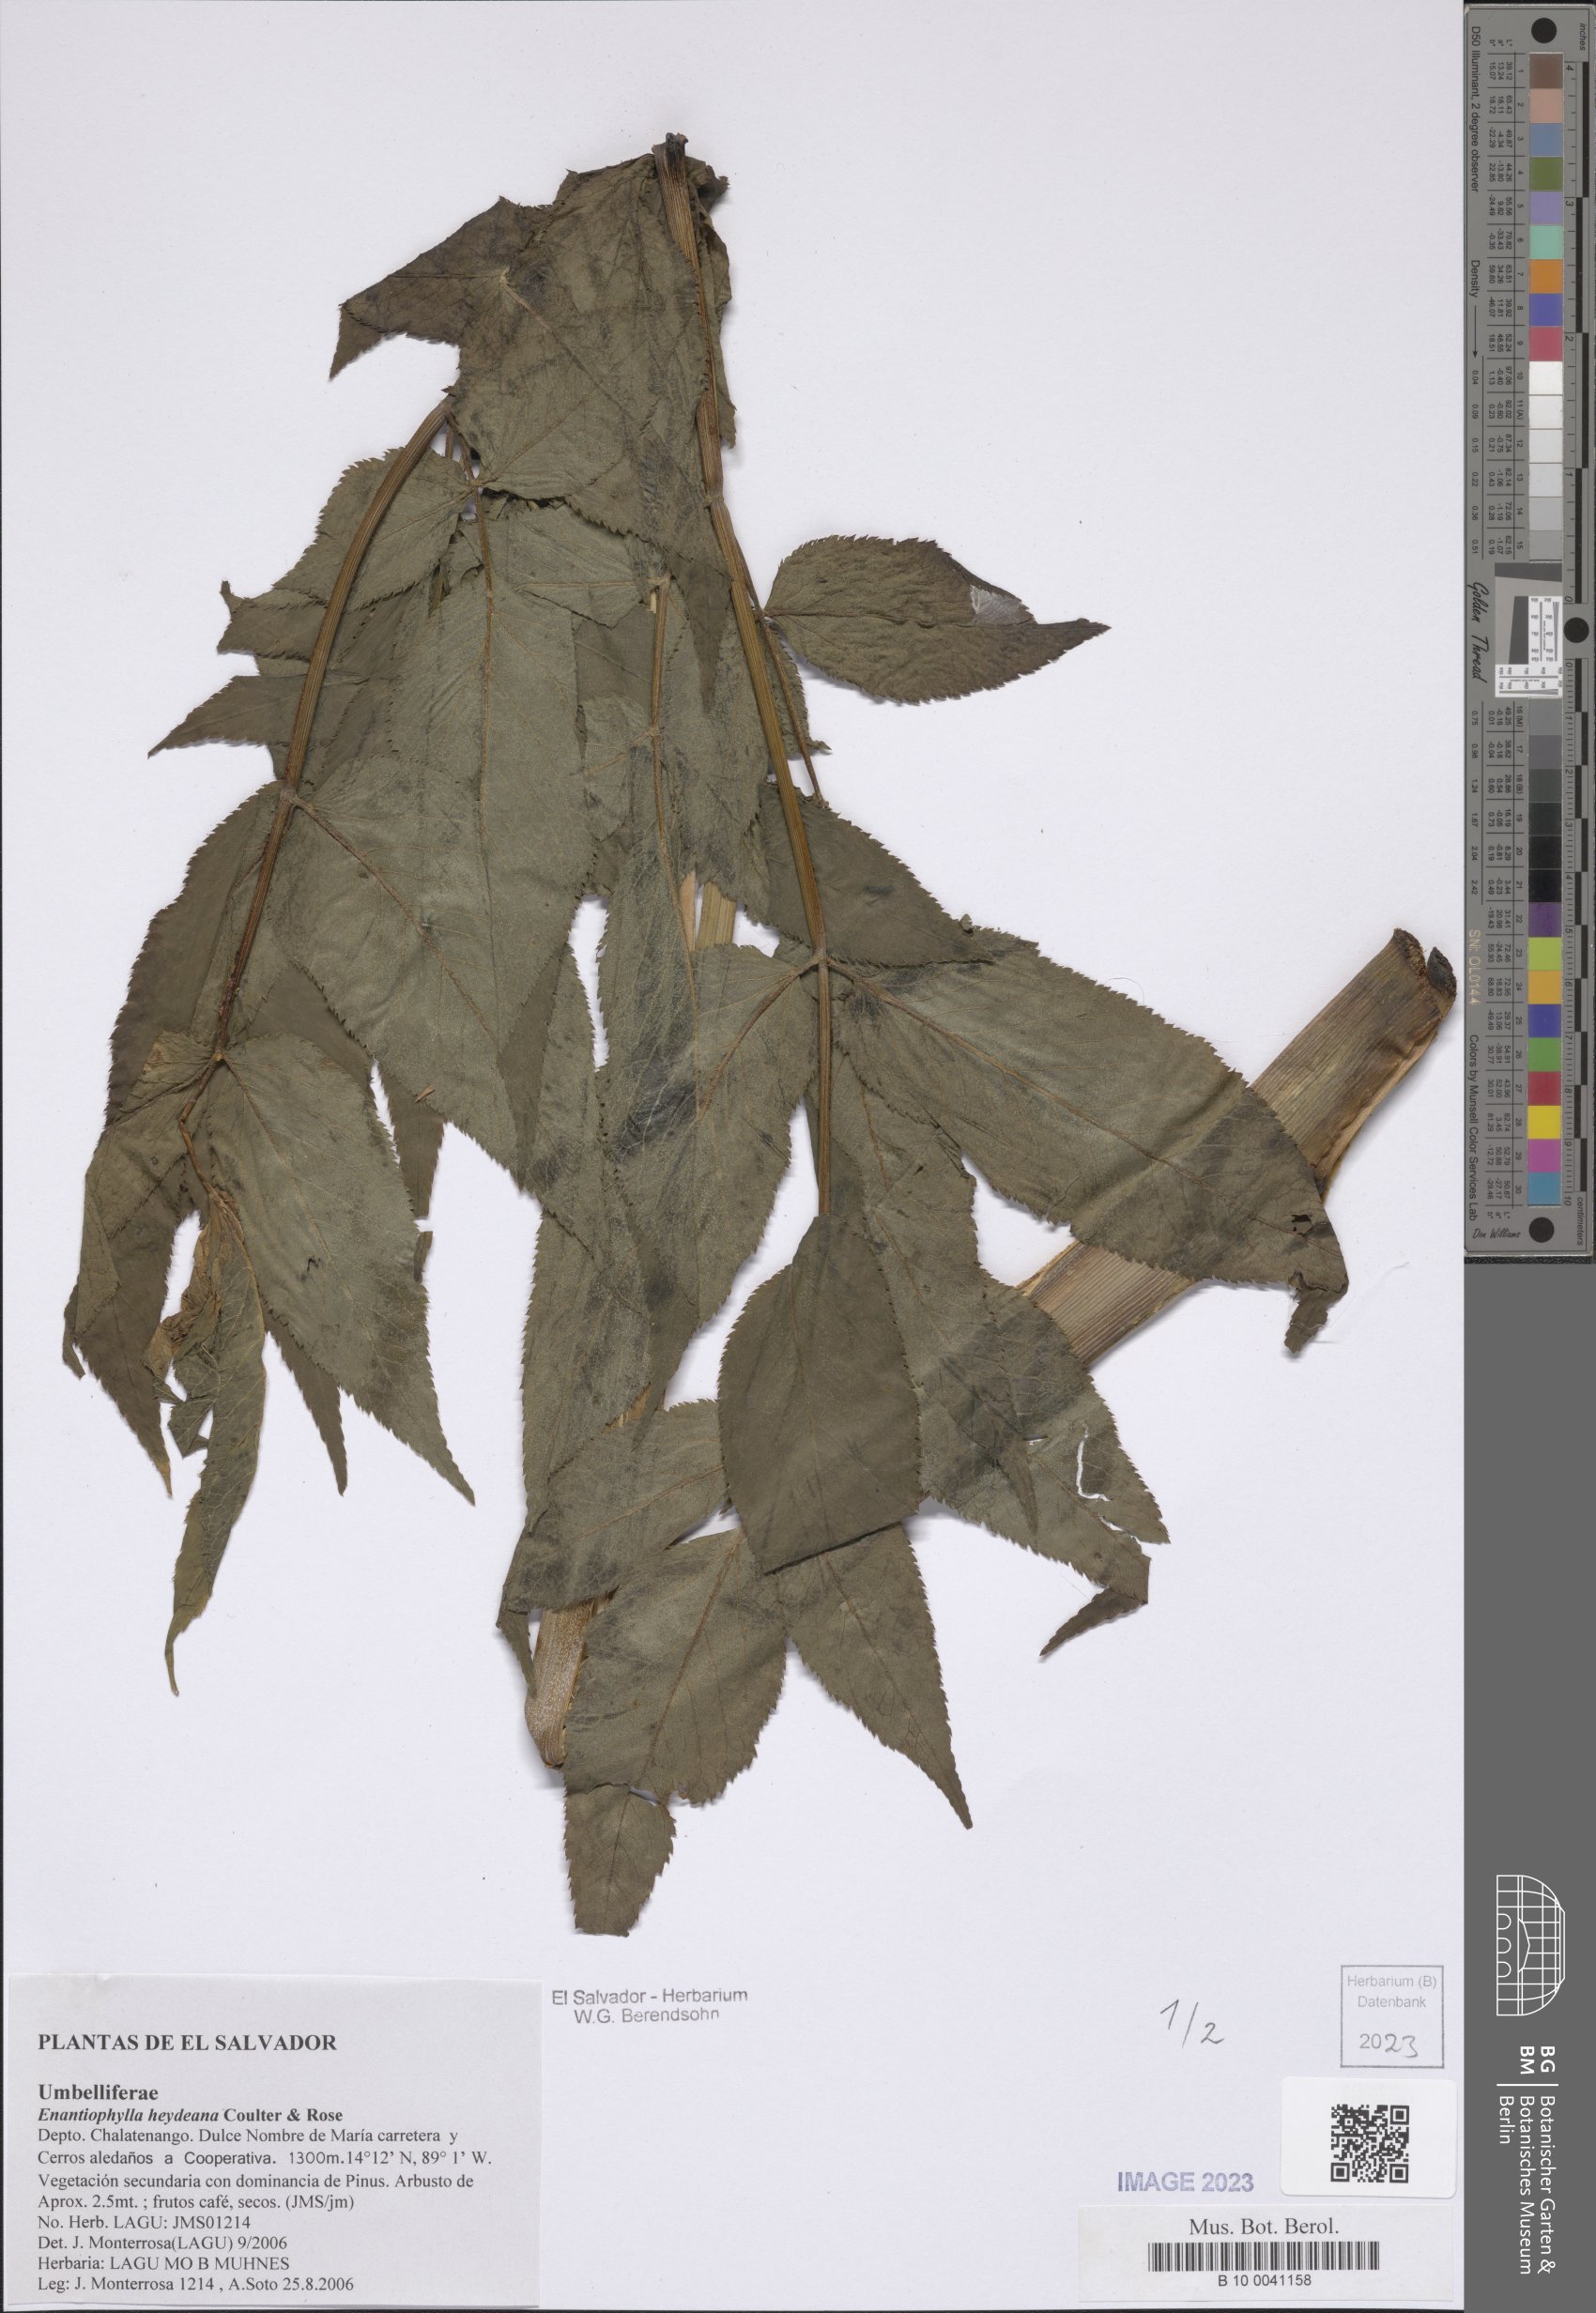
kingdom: Plantae
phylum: Tracheophyta
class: Magnoliopsida
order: Apiales
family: Apiaceae
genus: Enantiophylla
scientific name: Enantiophylla heydeana
